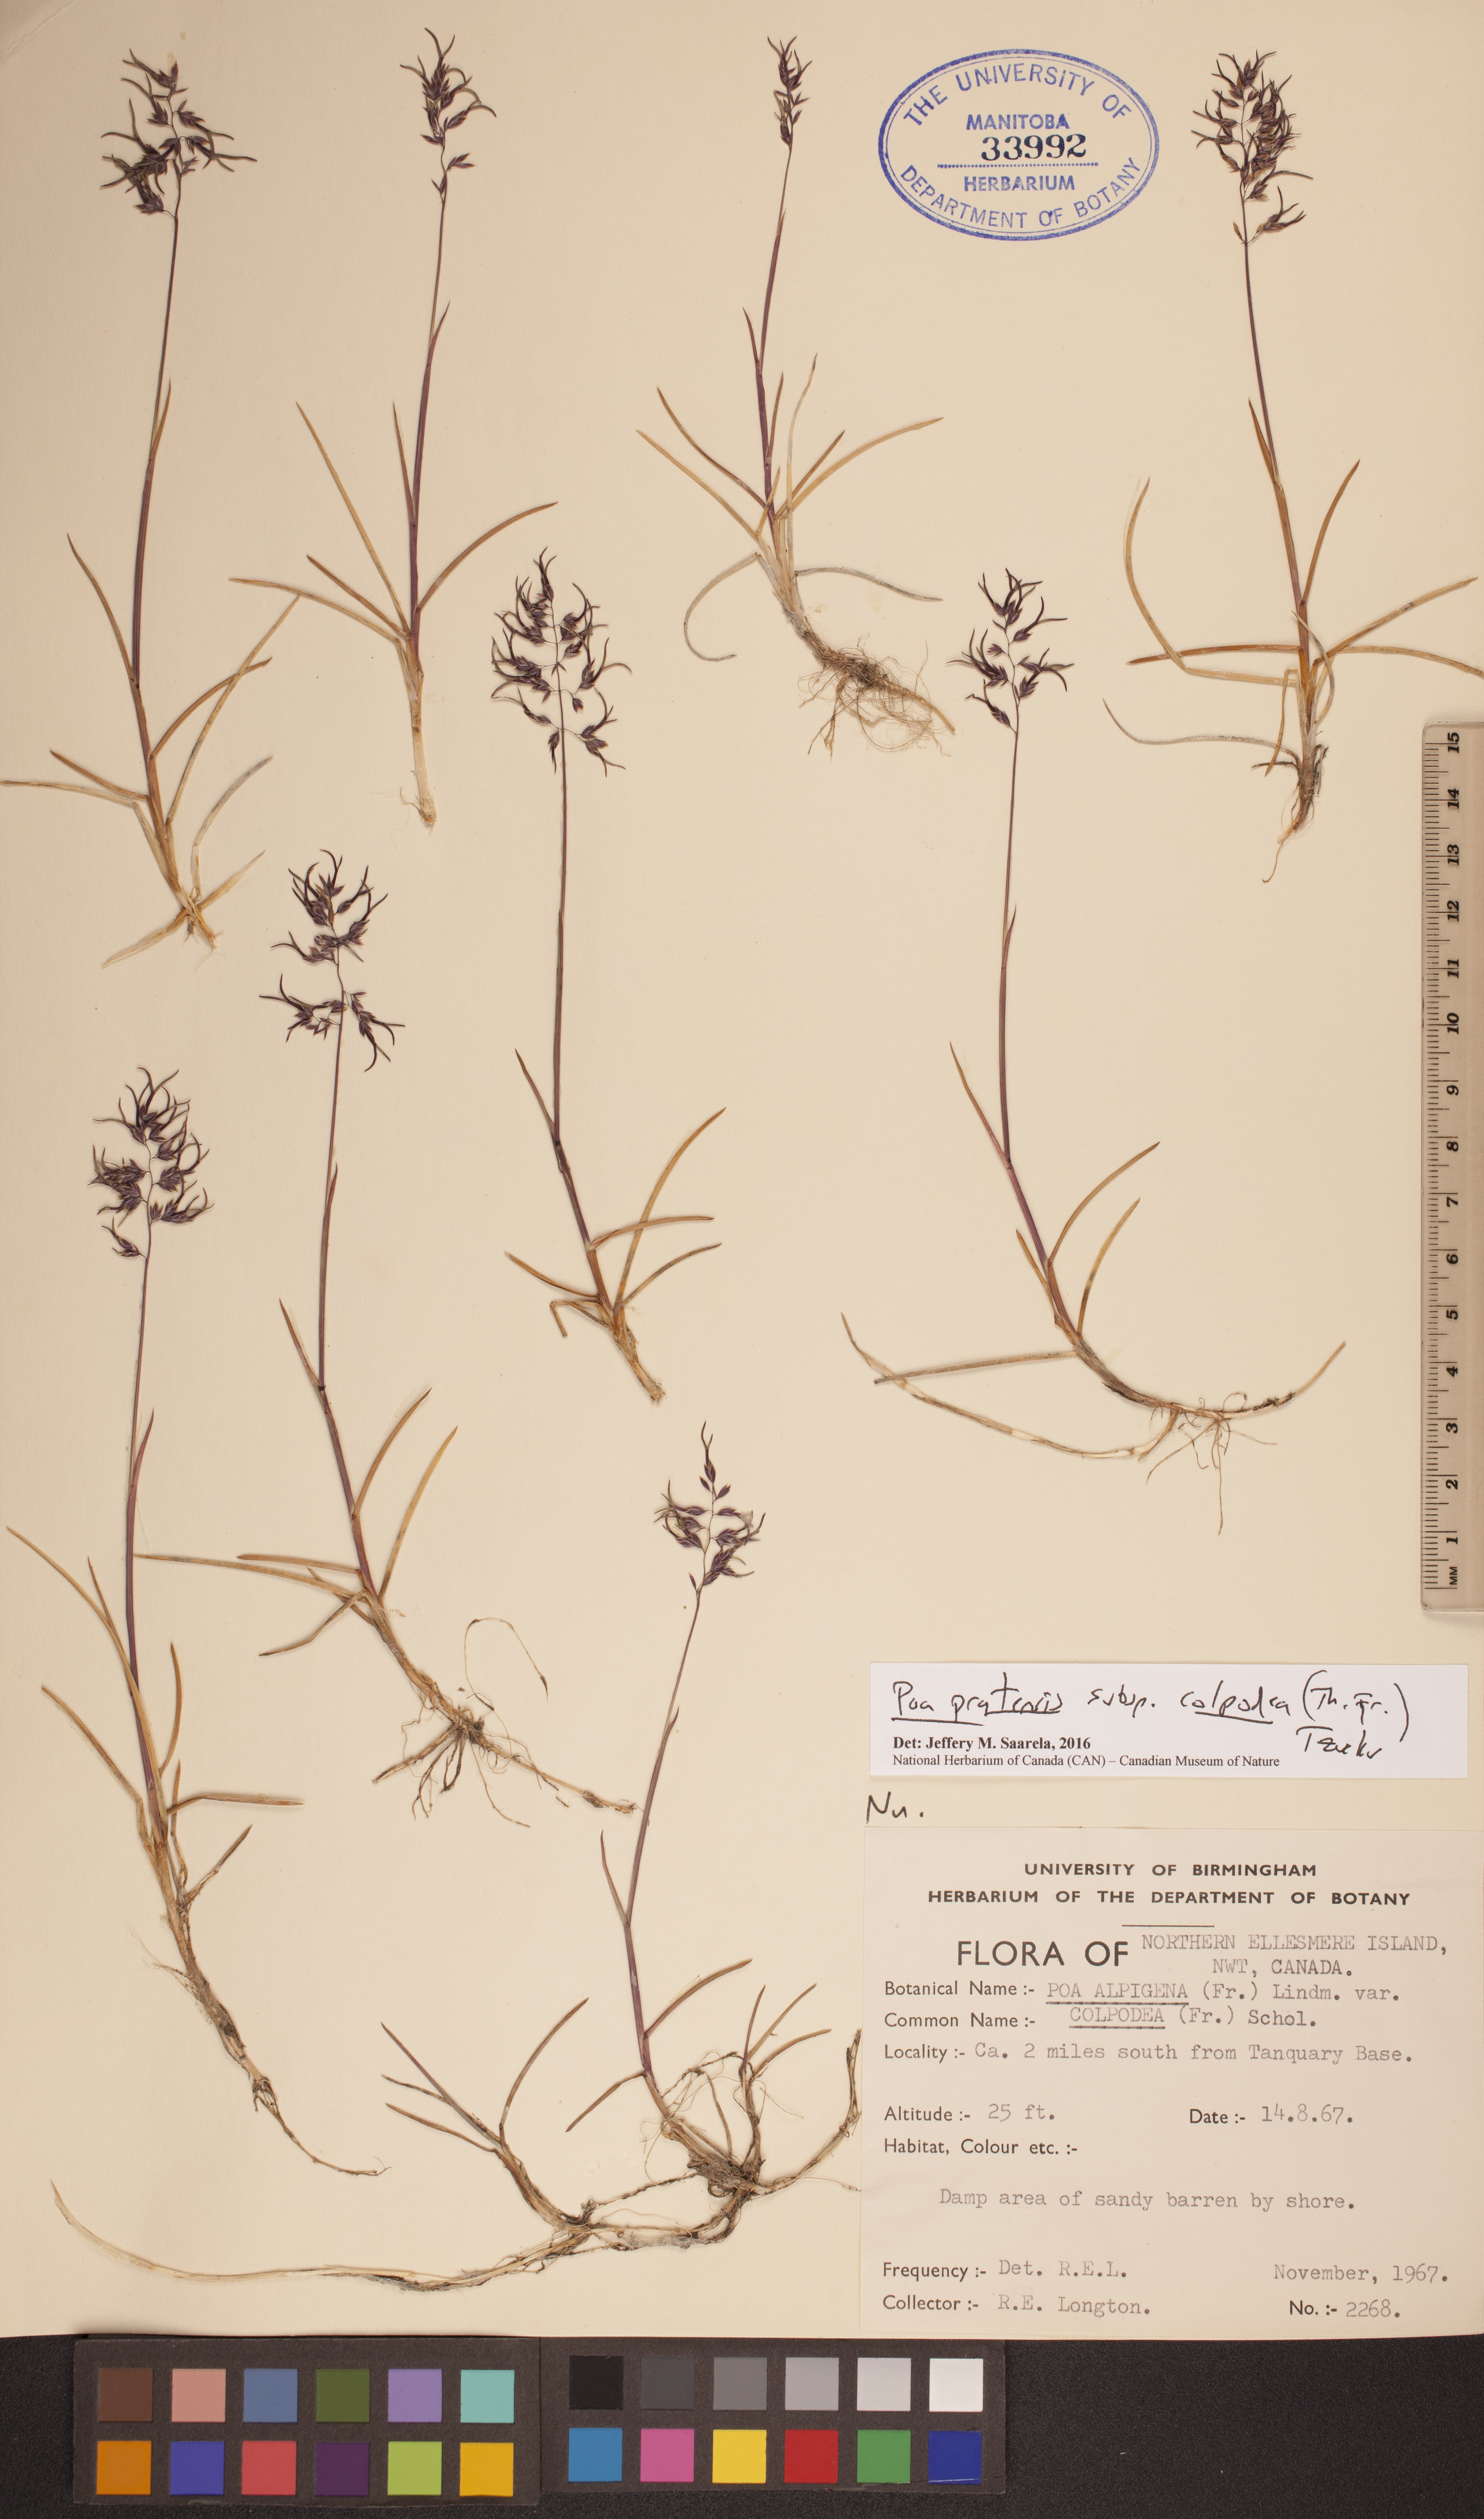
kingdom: Plantae
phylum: Tracheophyta
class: Liliopsida
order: Poales
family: Poaceae
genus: Poa
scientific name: Poa lindebergii
